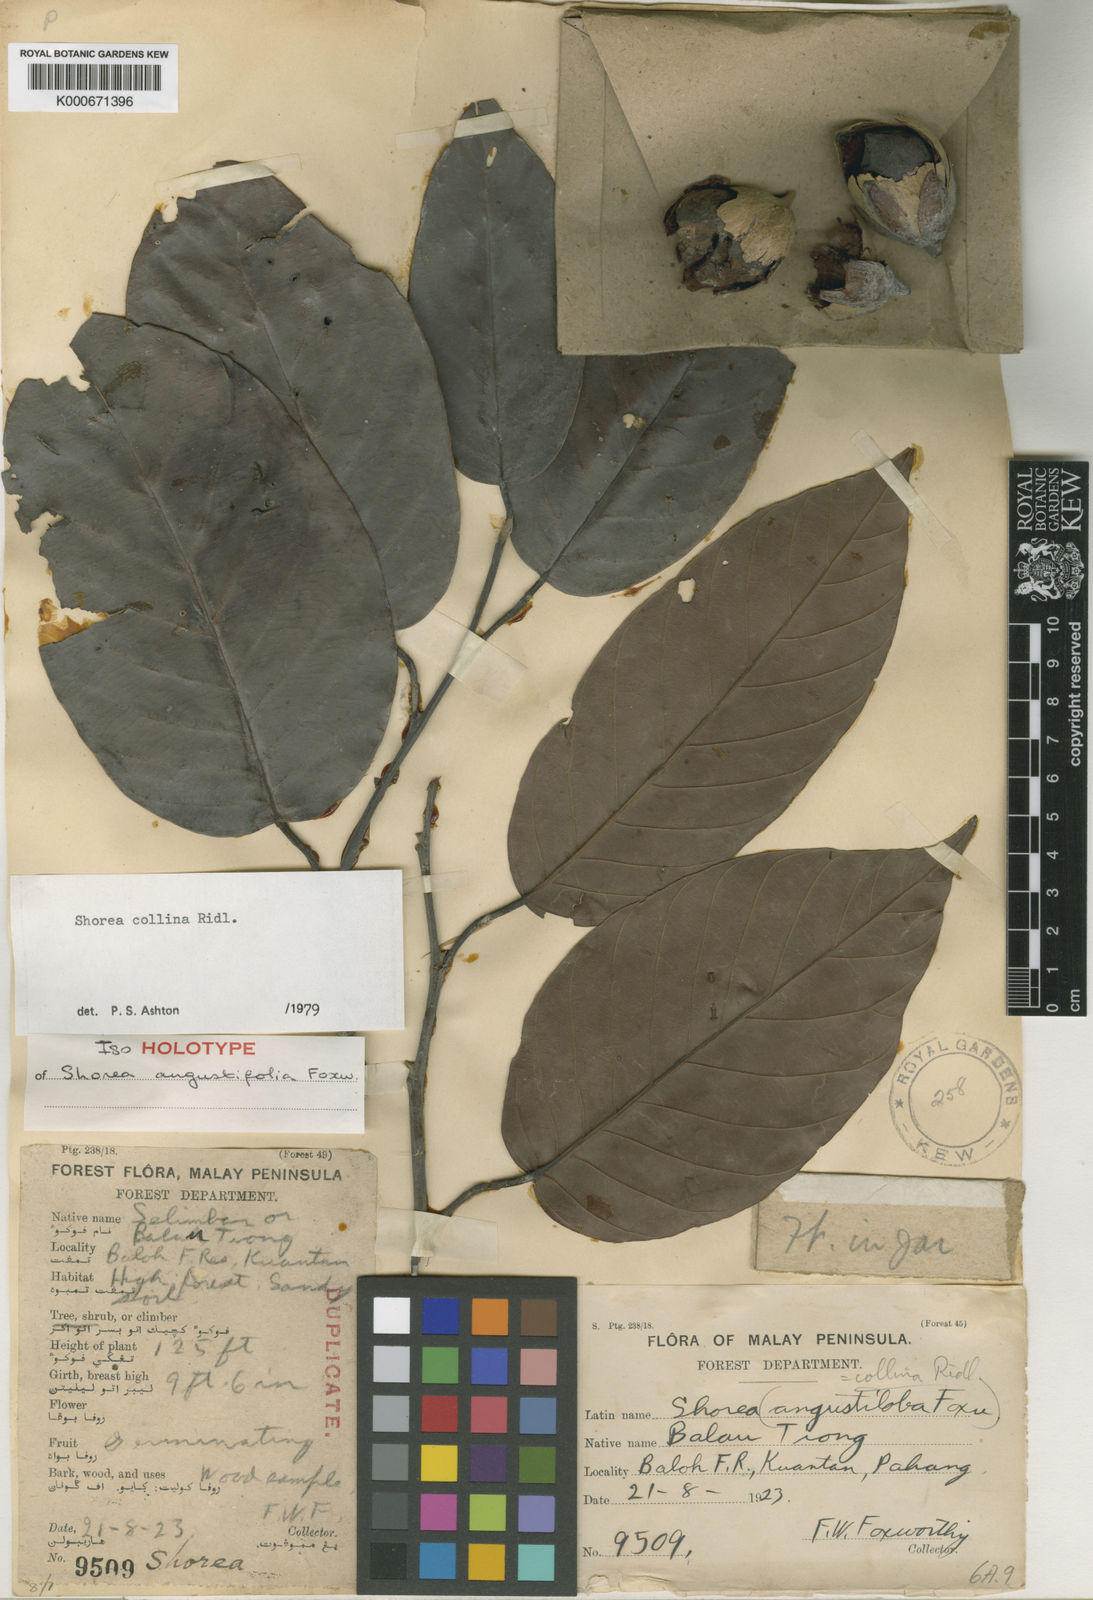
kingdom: Plantae
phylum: Tracheophyta
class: Magnoliopsida
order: Malvales
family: Dipterocarpaceae
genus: Shorea
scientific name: Shorea collina
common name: Red balau
